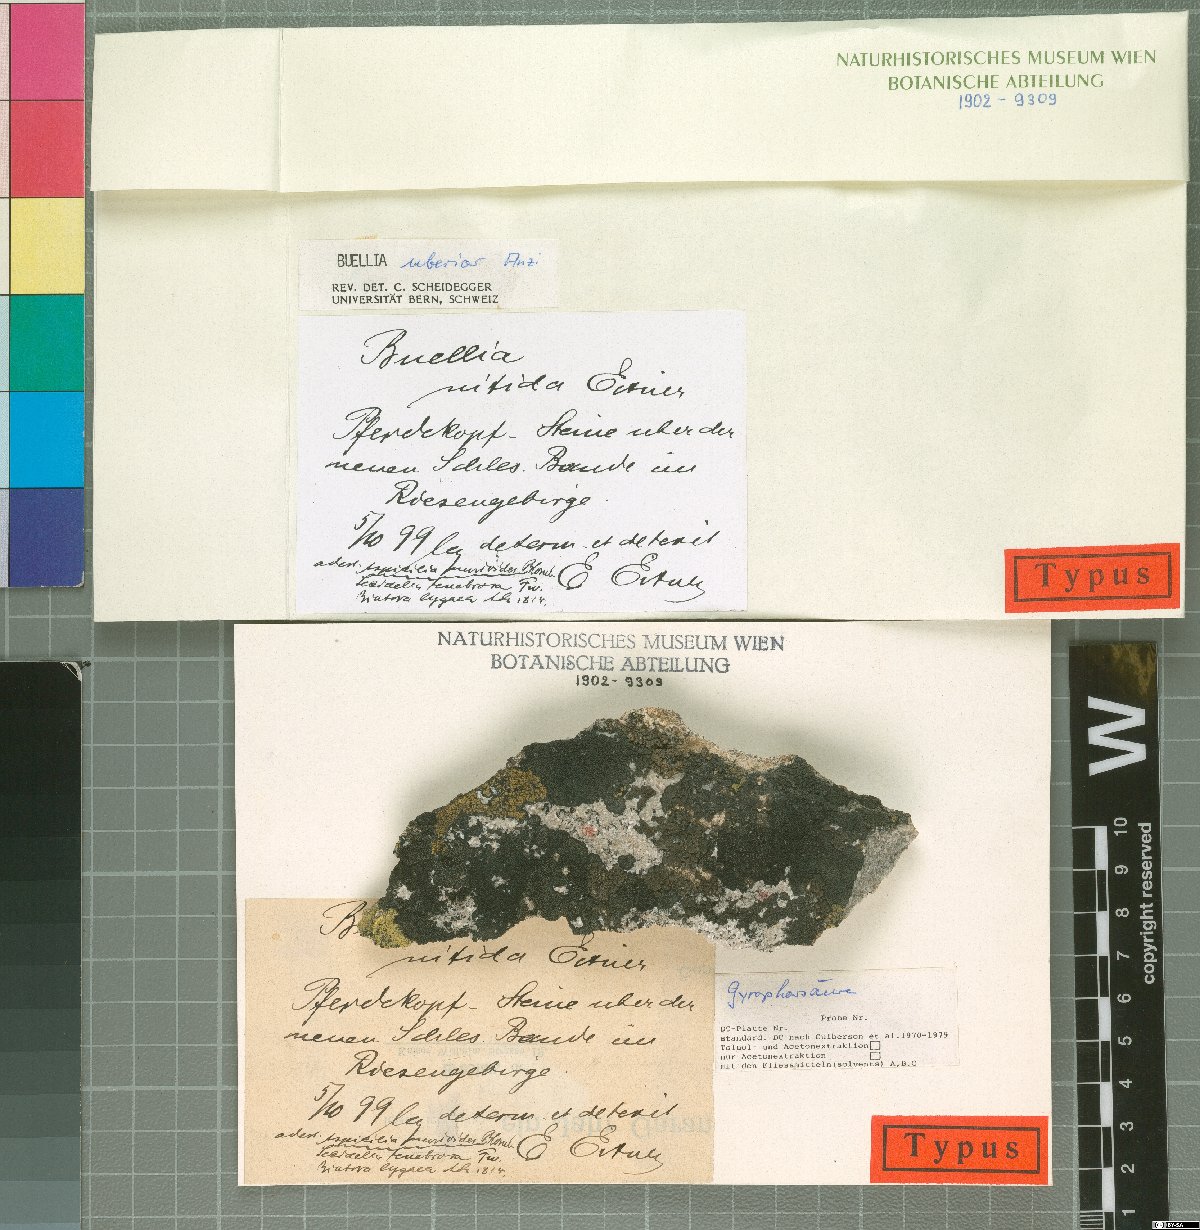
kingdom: Fungi
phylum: Ascomycota
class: Lecanoromycetes
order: Caliciales
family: Caliciaceae
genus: Buellia
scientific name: Buellia uberior
